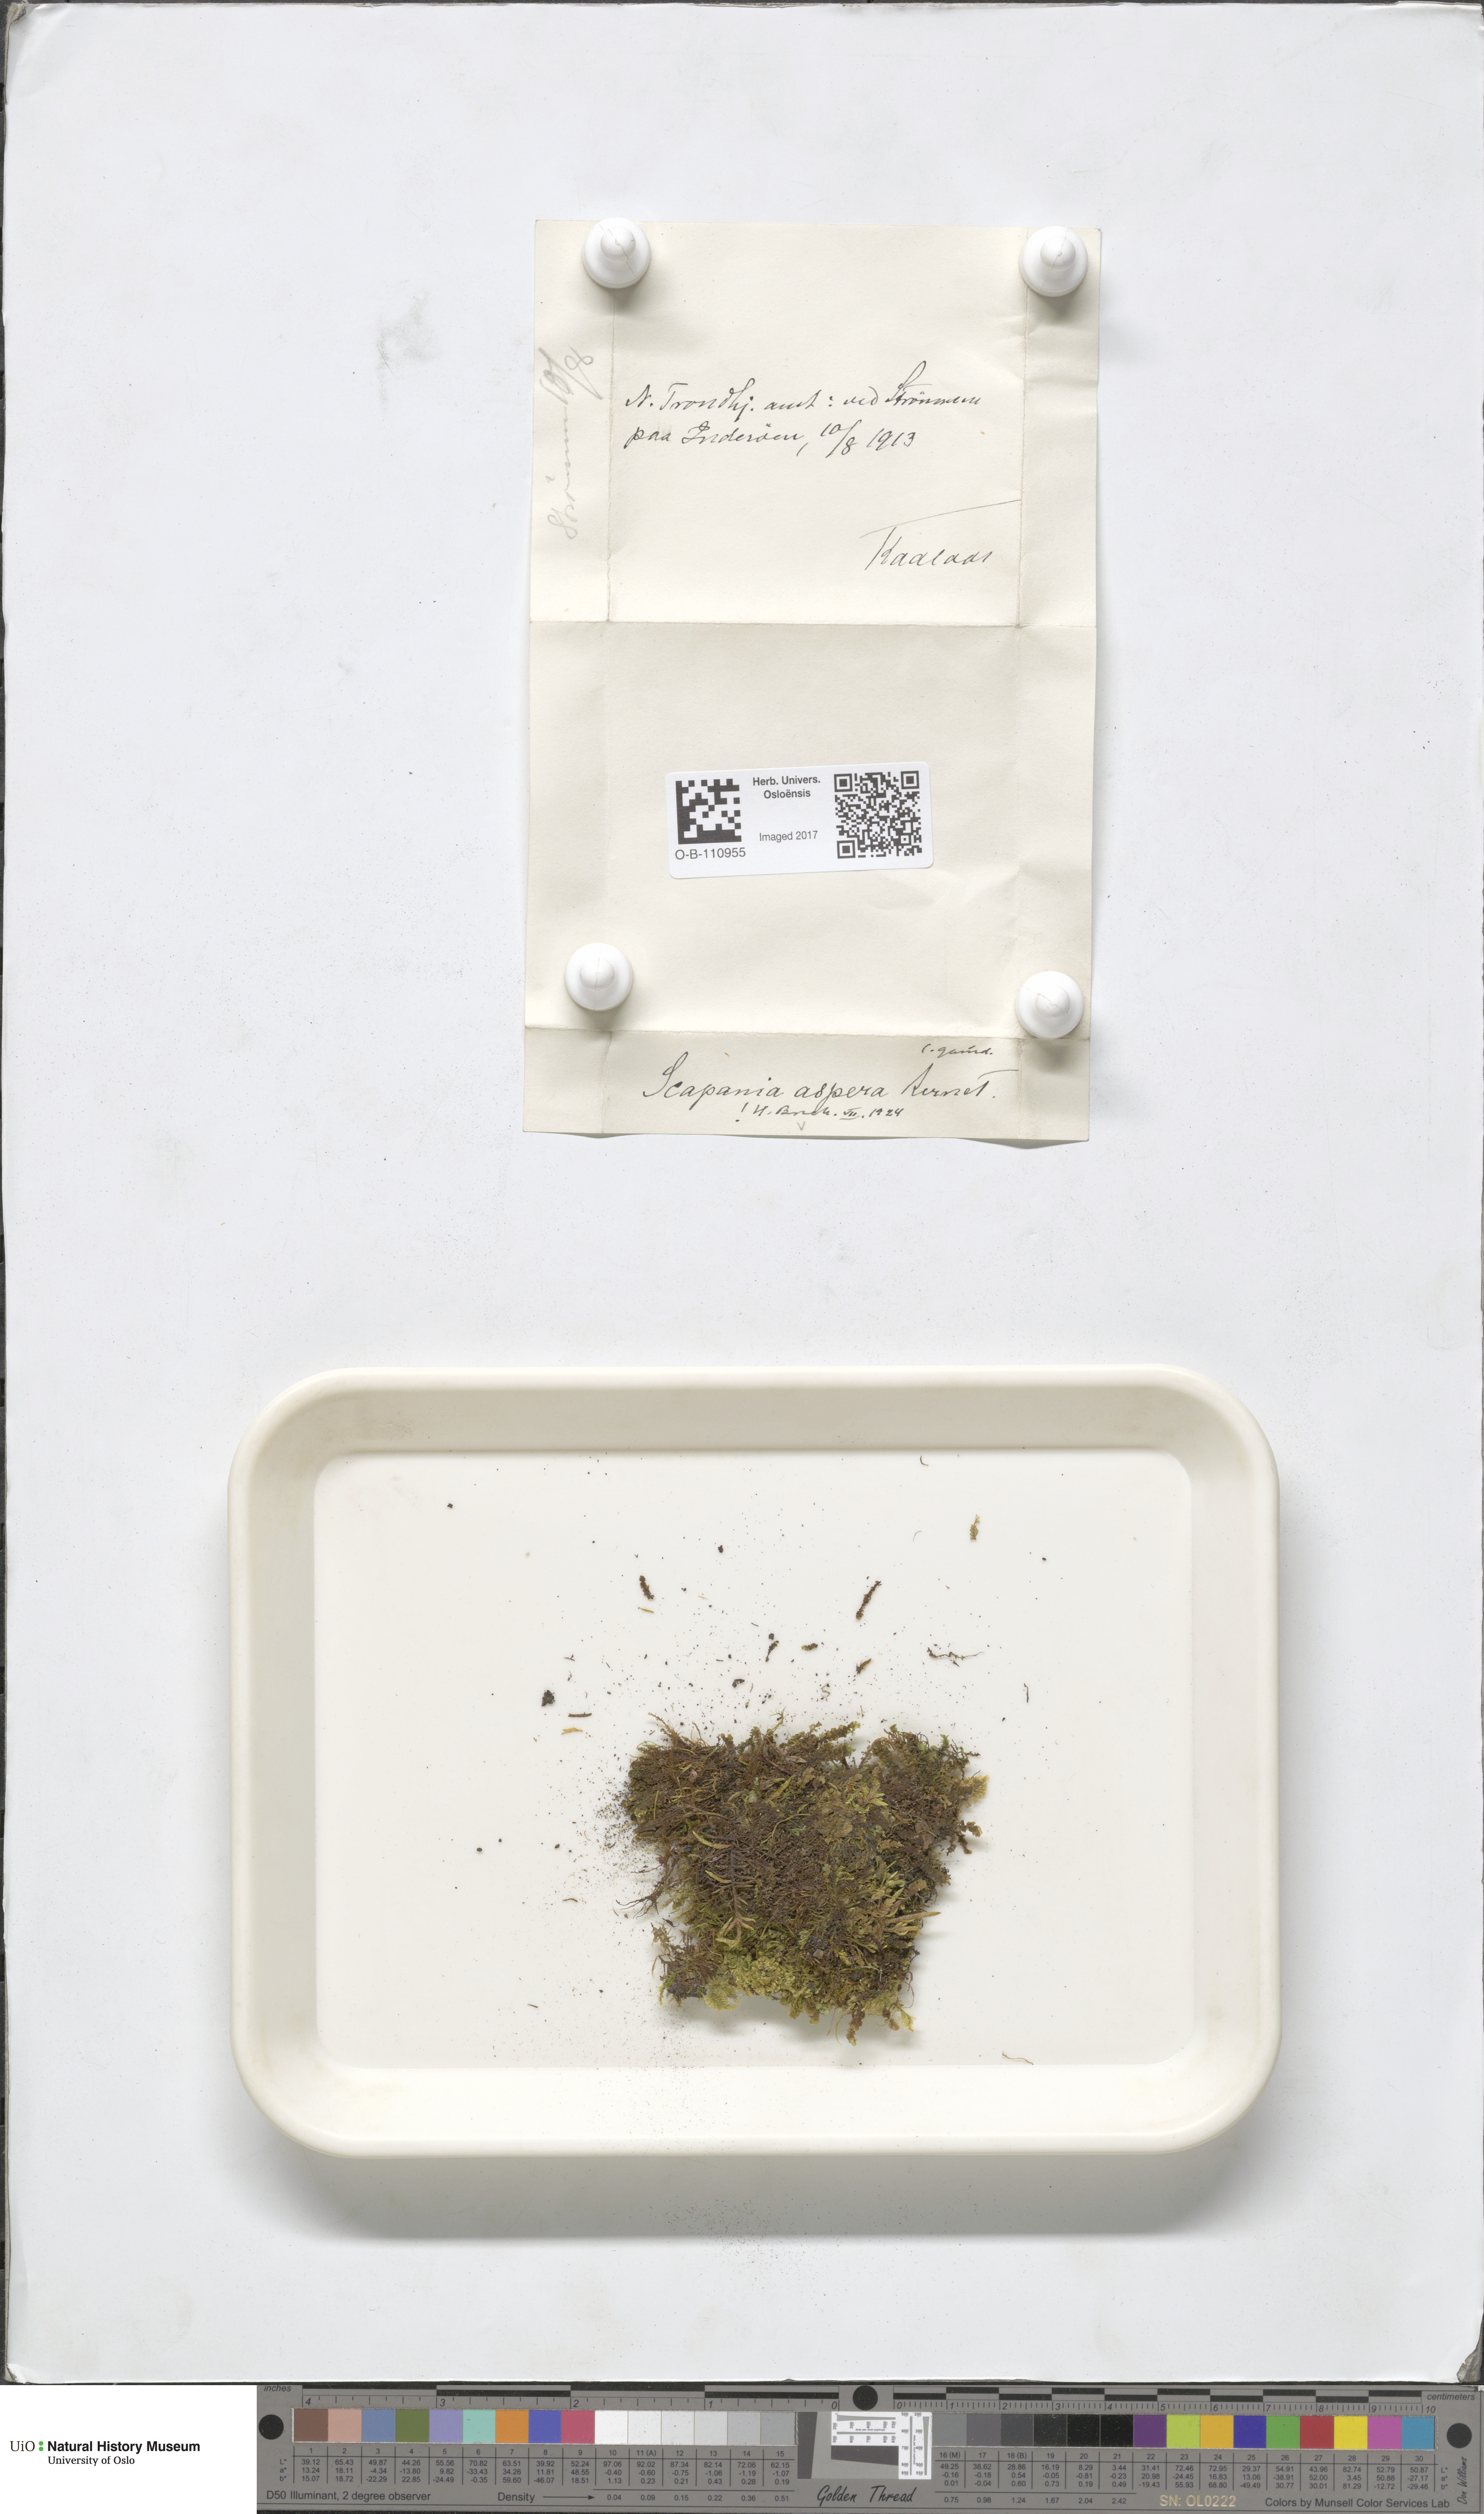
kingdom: Plantae
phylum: Marchantiophyta
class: Jungermanniopsida
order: Jungermanniales
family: Scapaniaceae
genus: Scapania
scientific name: Scapania aspera
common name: Rough earwort
